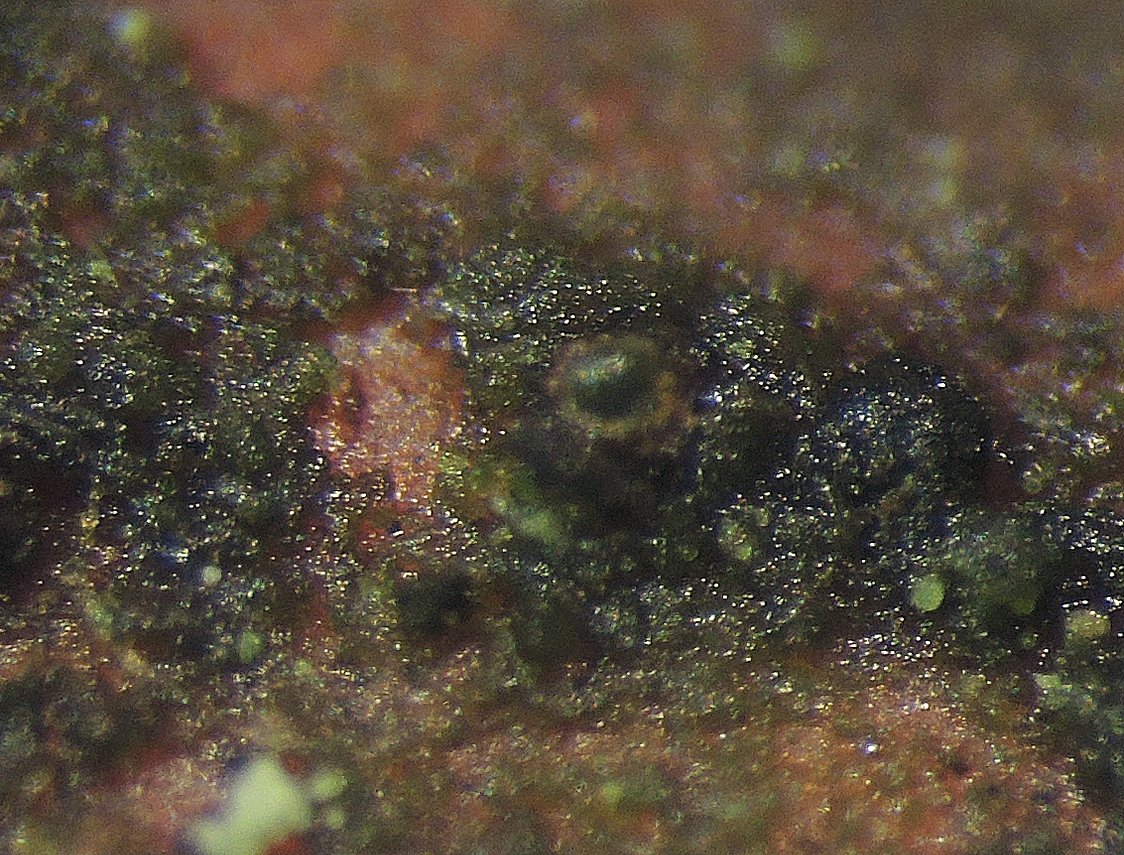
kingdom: Fungi
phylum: Ascomycota
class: Leotiomycetes
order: Helotiales
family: Dermateaceae
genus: Dermea
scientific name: Dermea ariae
